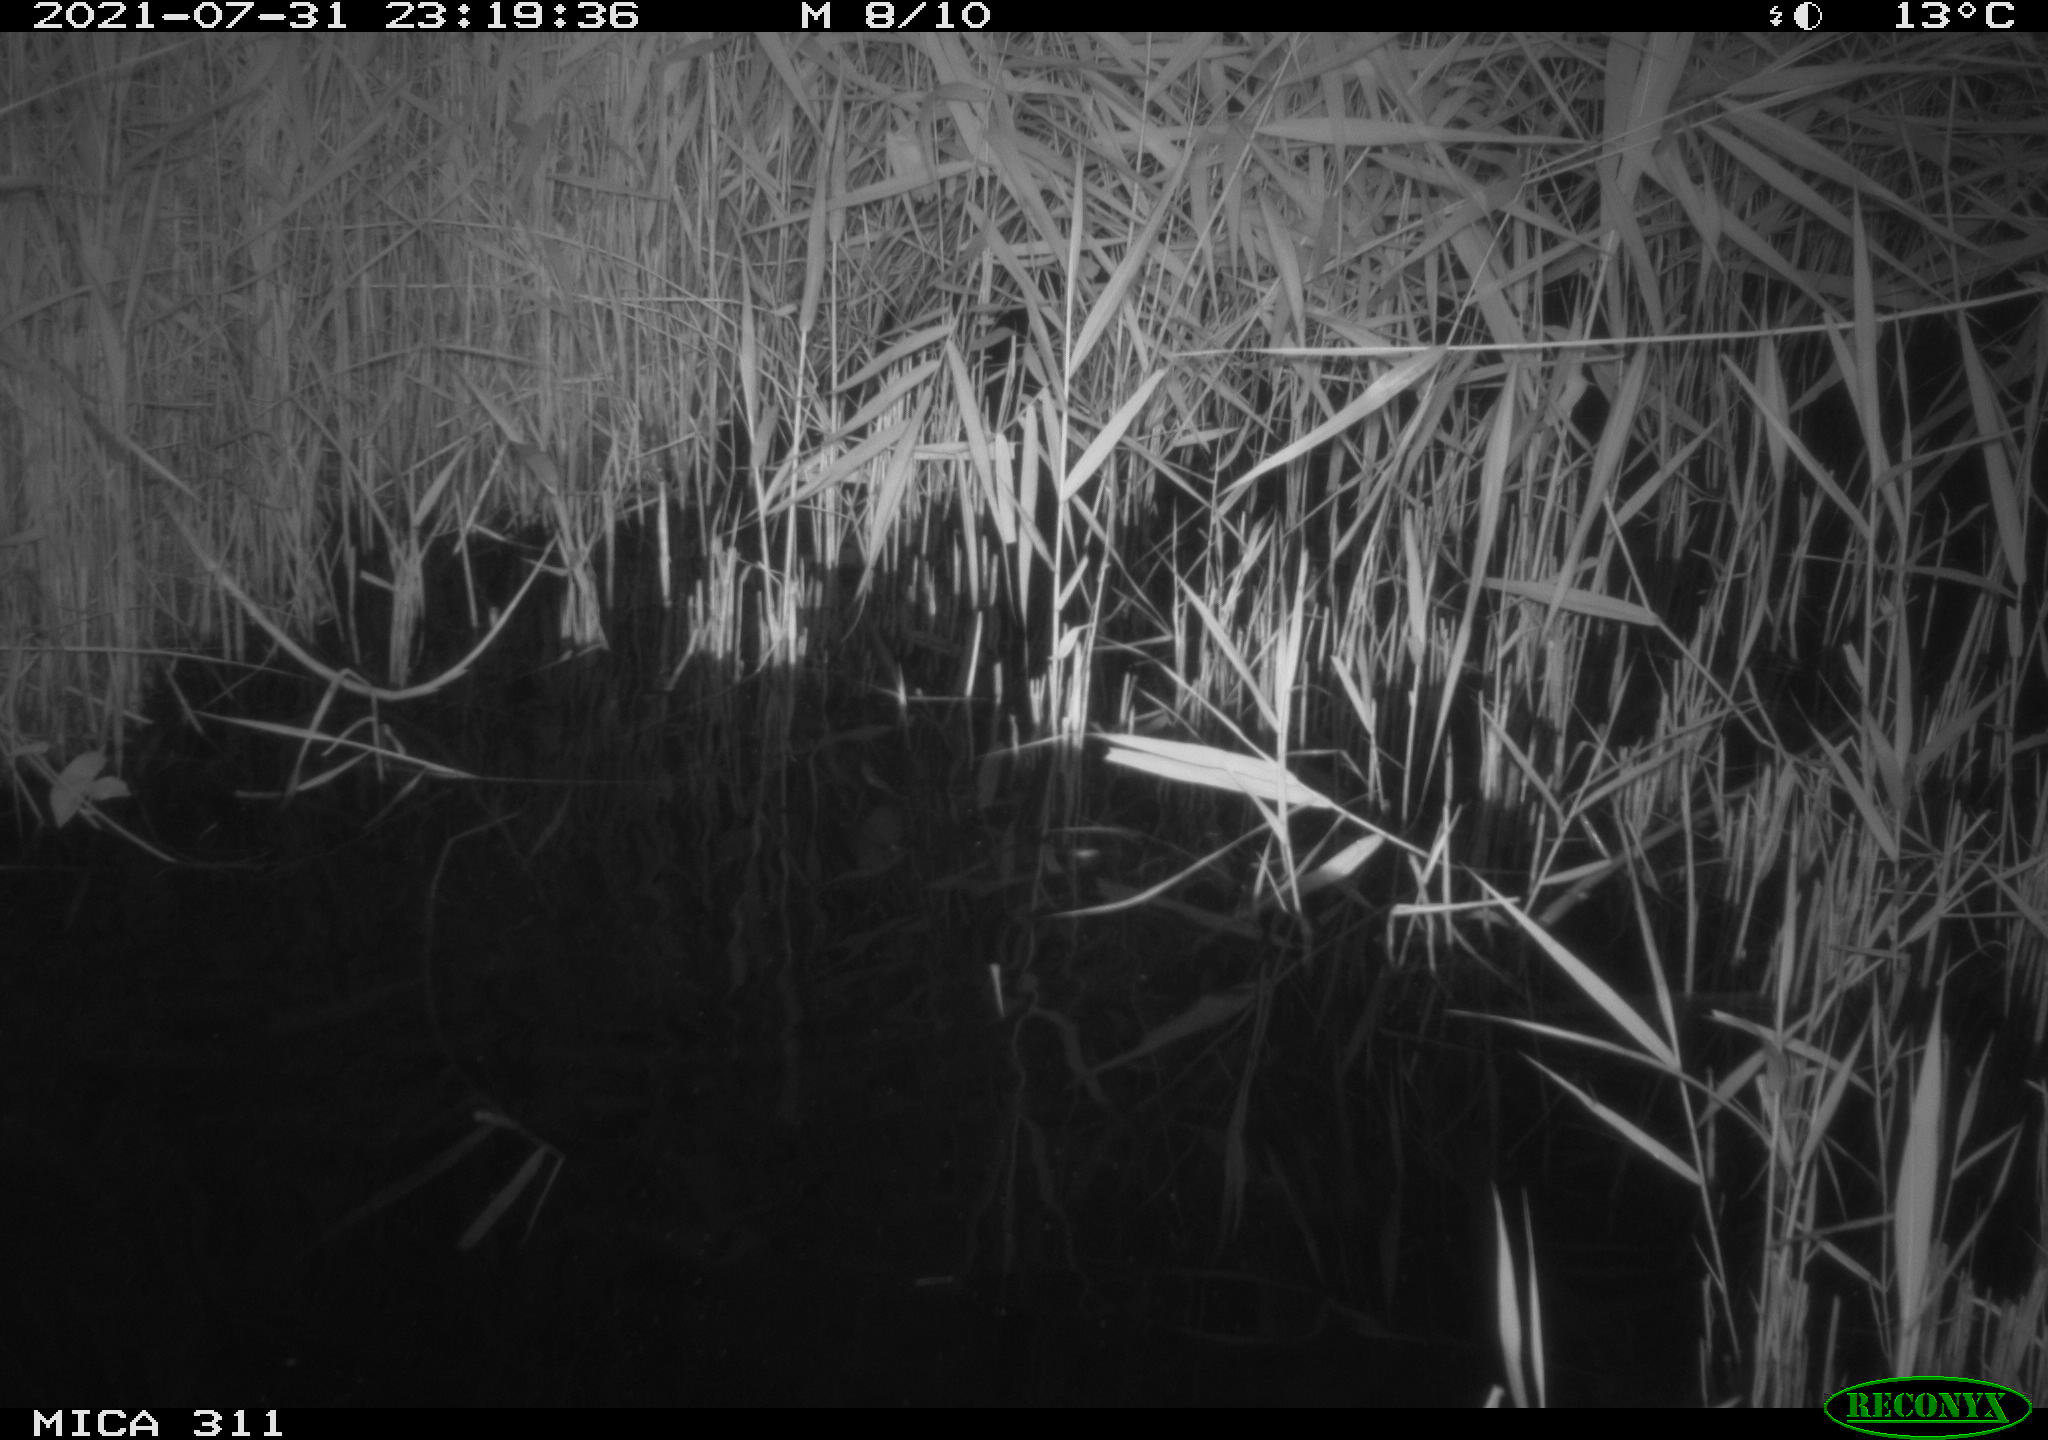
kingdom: Animalia
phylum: Chordata
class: Mammalia
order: Rodentia
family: Muridae
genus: Rattus
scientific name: Rattus norvegicus
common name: Brown rat
